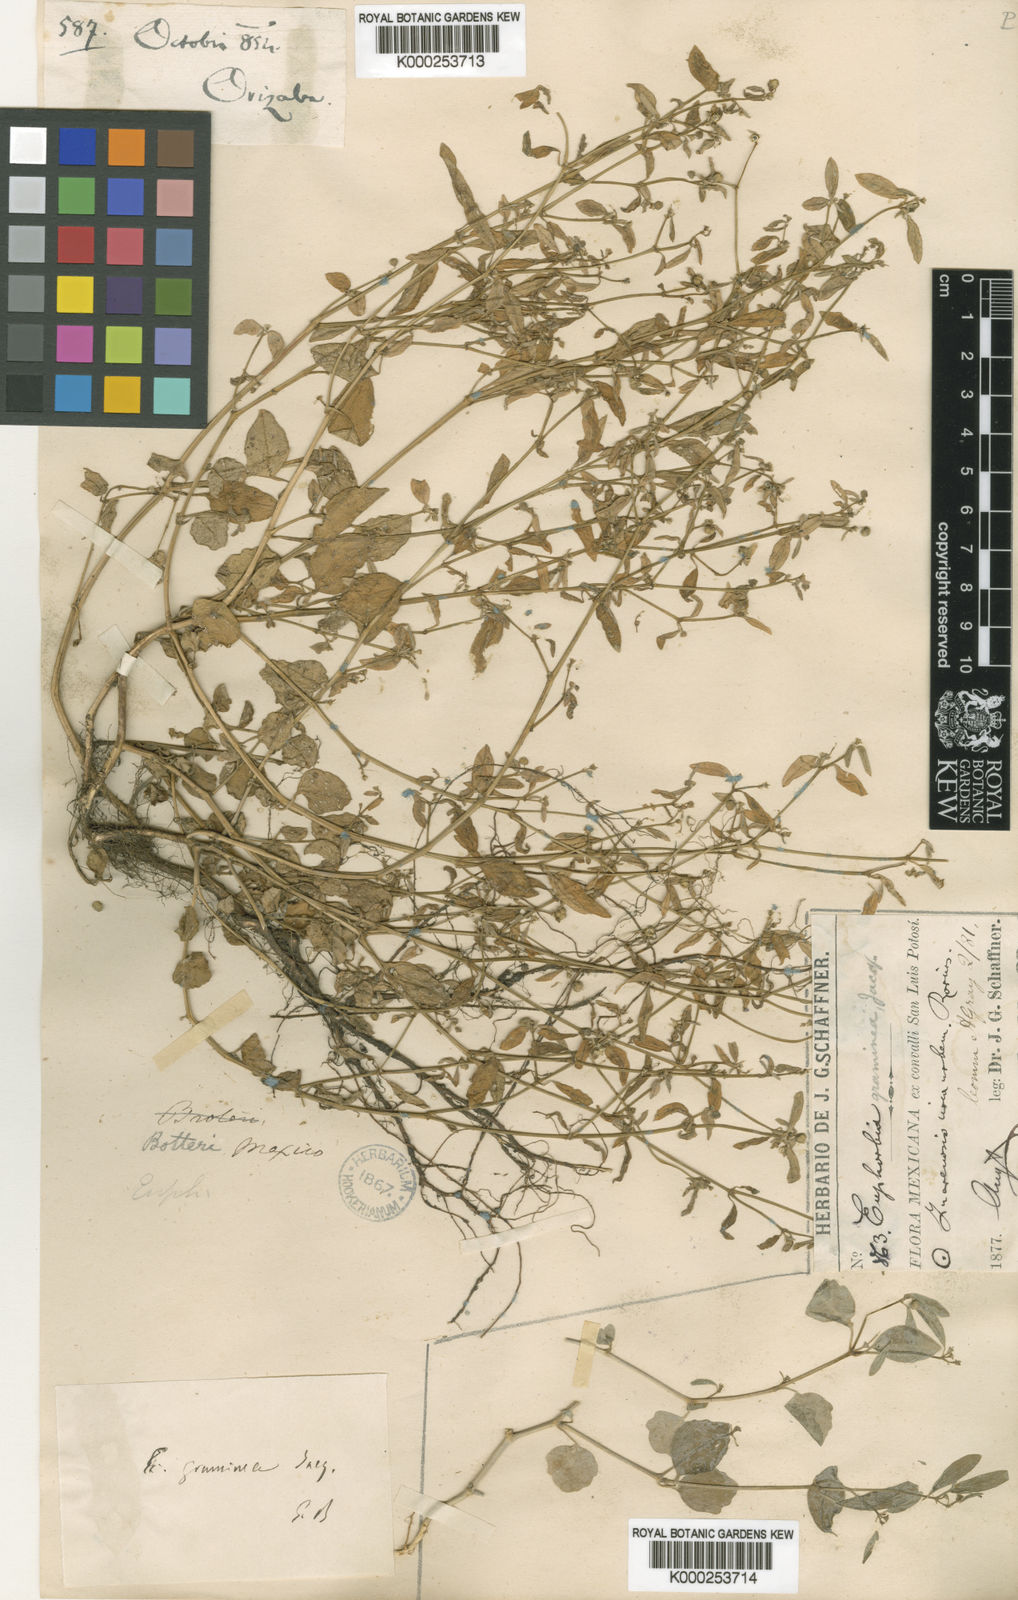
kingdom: Plantae
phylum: Tracheophyta
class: Magnoliopsida
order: Malpighiales
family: Euphorbiaceae
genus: Euphorbia
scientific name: Euphorbia graminea
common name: Grassleaf spurge
